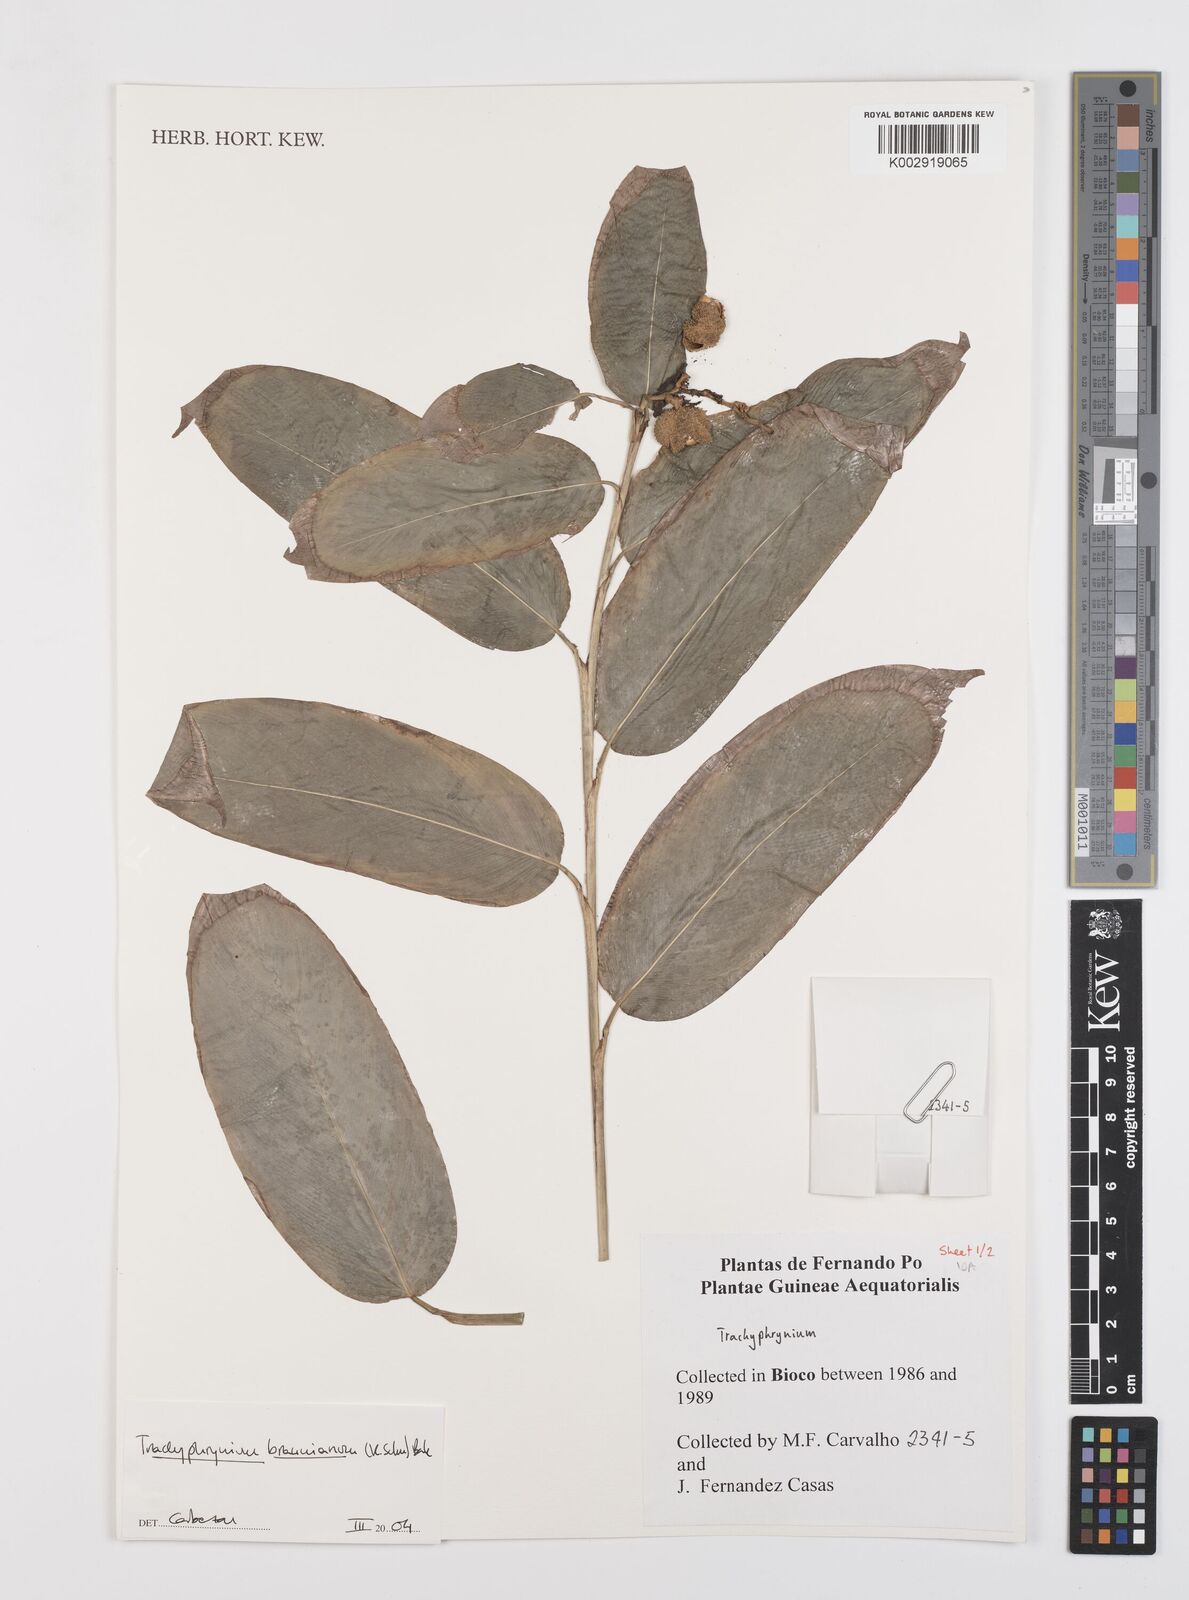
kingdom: Plantae
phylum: Tracheophyta
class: Liliopsida
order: Zingiberales
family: Marantaceae
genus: Trachyphrynium
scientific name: Trachyphrynium braunianum
